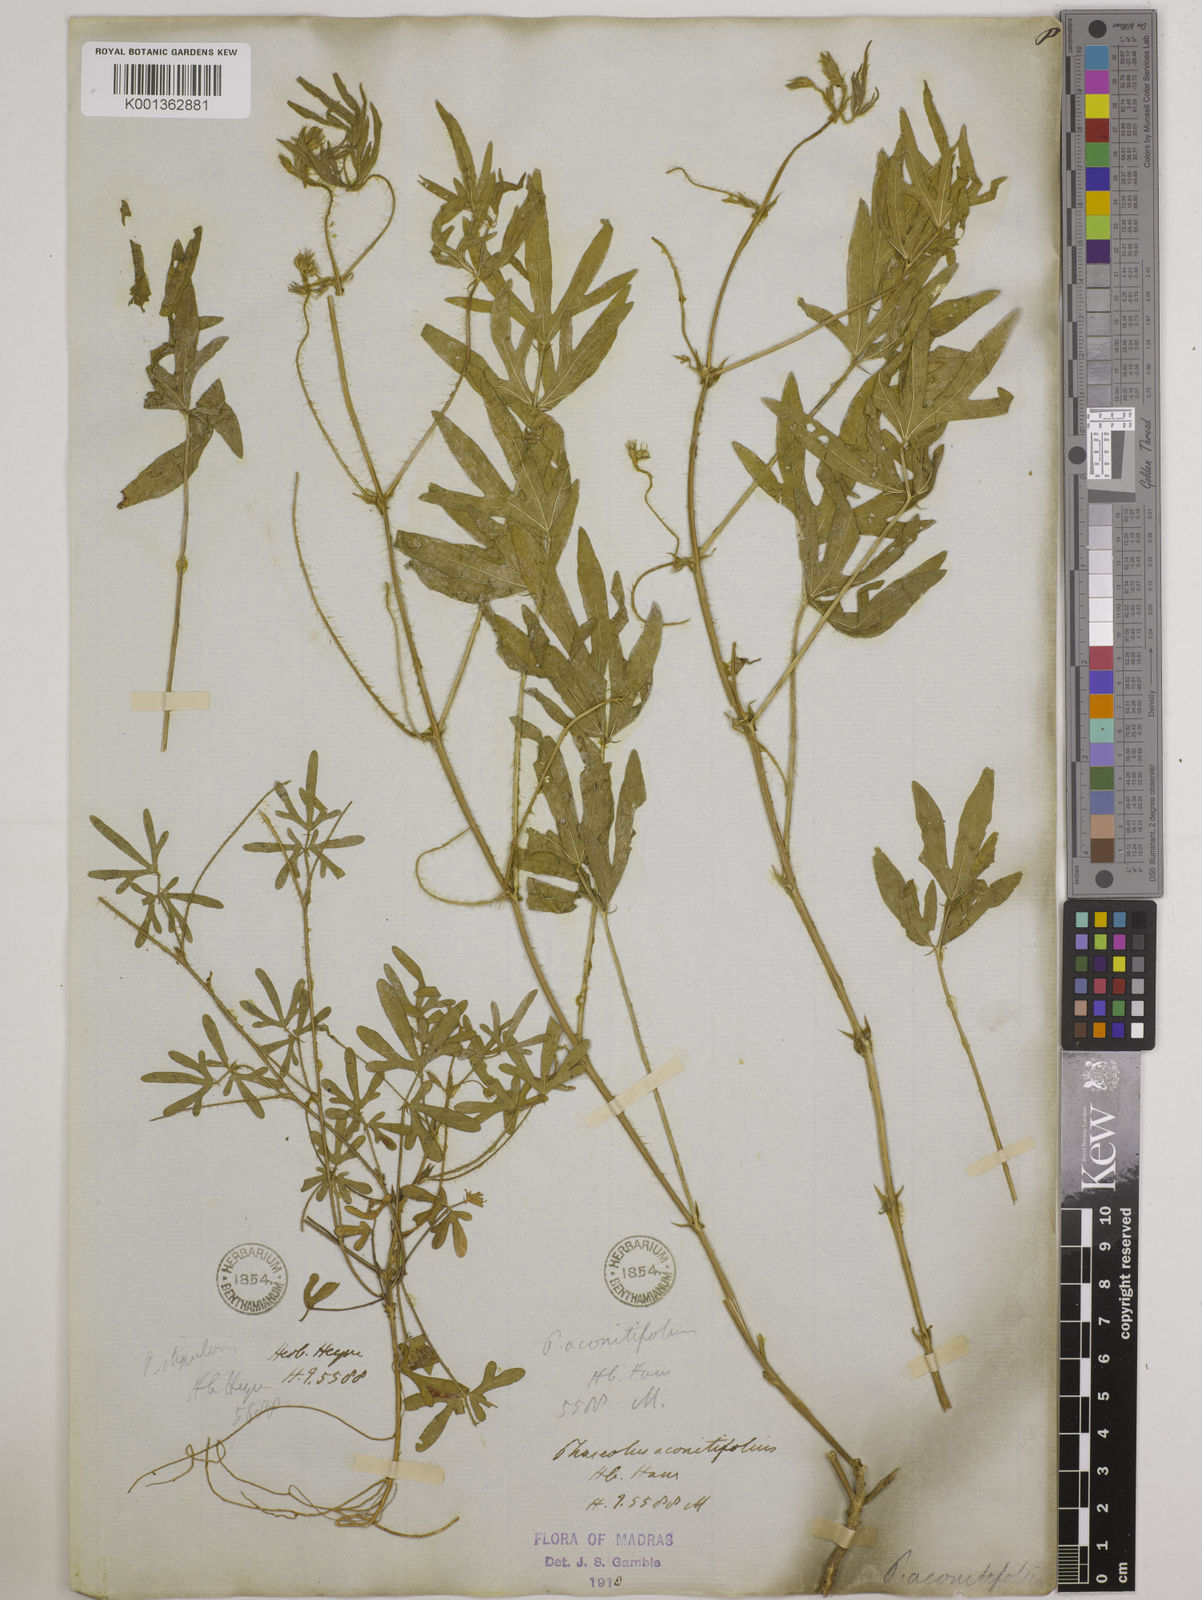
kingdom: Plantae
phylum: Tracheophyta
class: Magnoliopsida
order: Fabales
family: Fabaceae
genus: Vigna
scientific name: Vigna aconitifolia
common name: Dew bean
